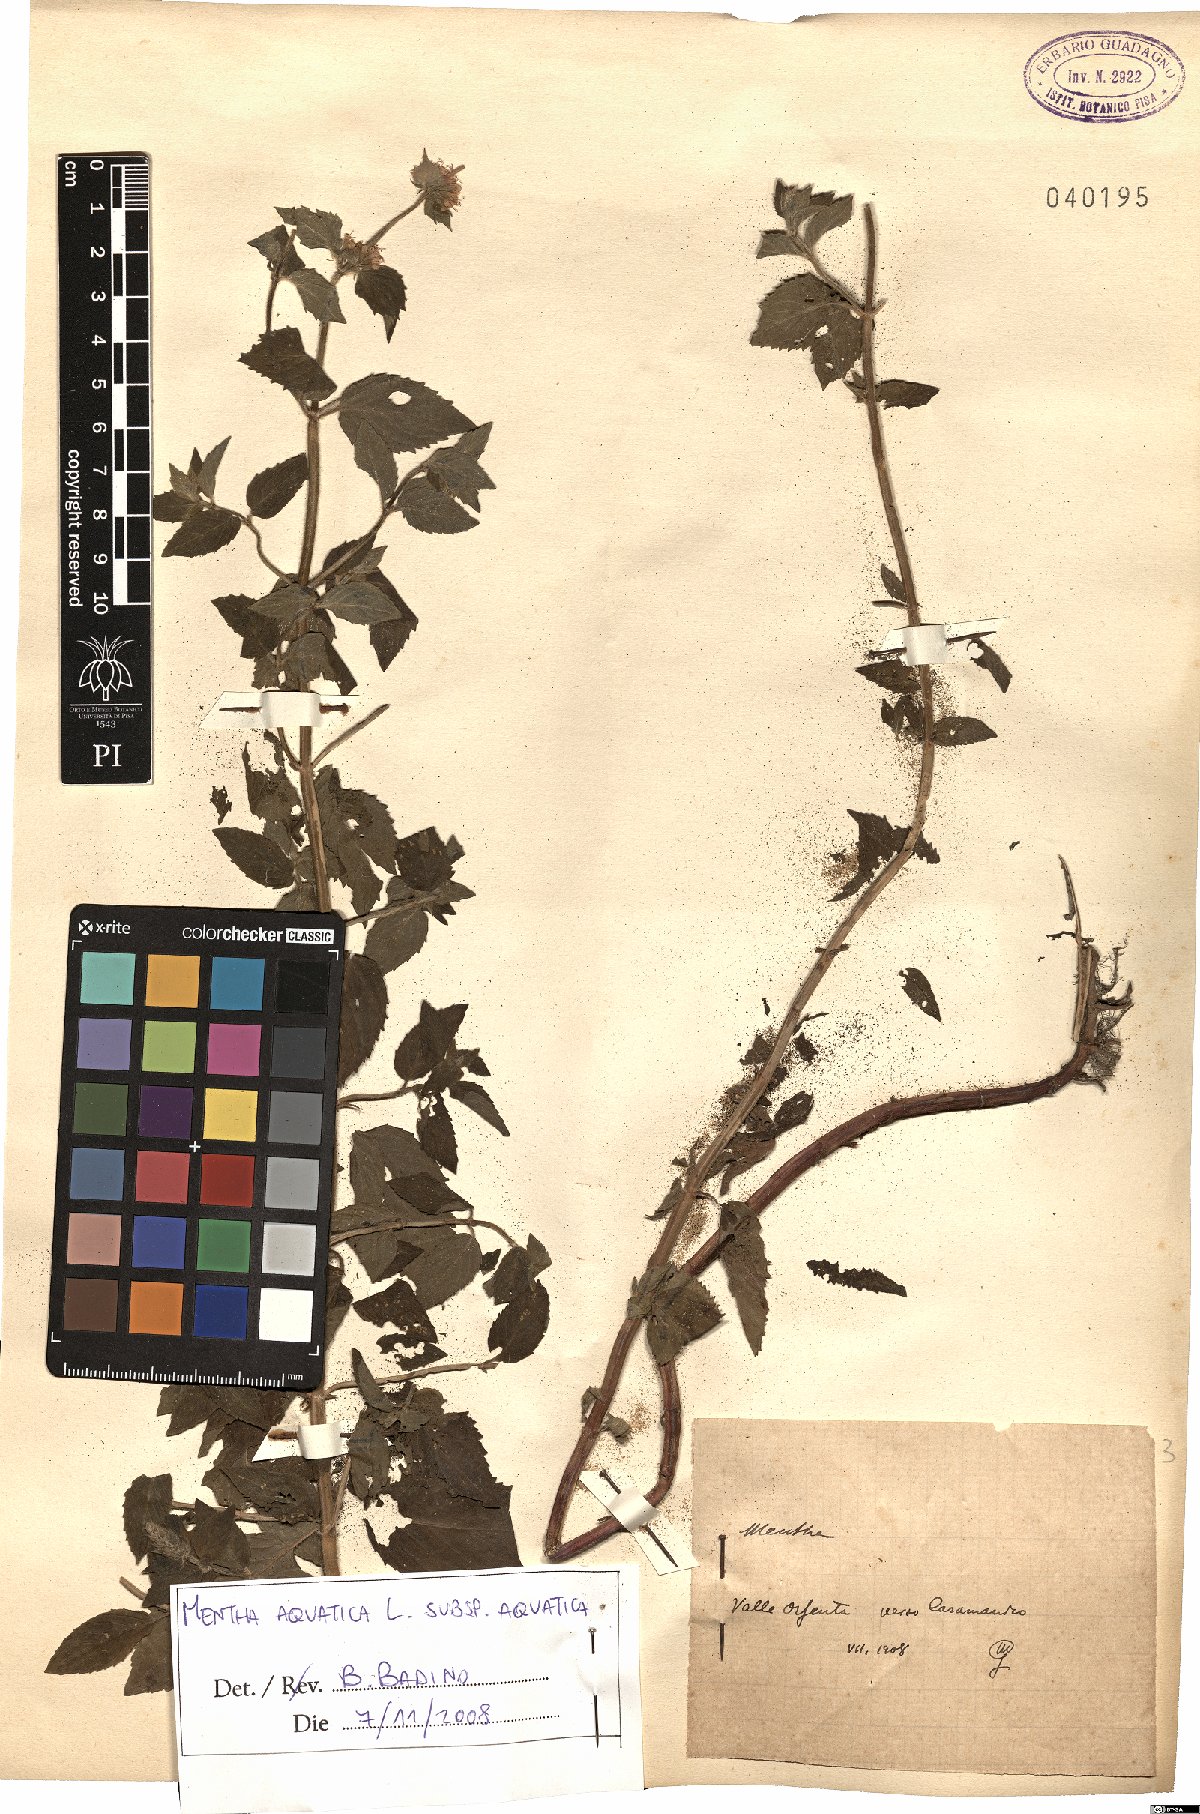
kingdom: Plantae
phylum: Tracheophyta
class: Magnoliopsida
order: Lamiales
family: Lamiaceae
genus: Mentha
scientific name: Mentha aquatica
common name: Water mint
